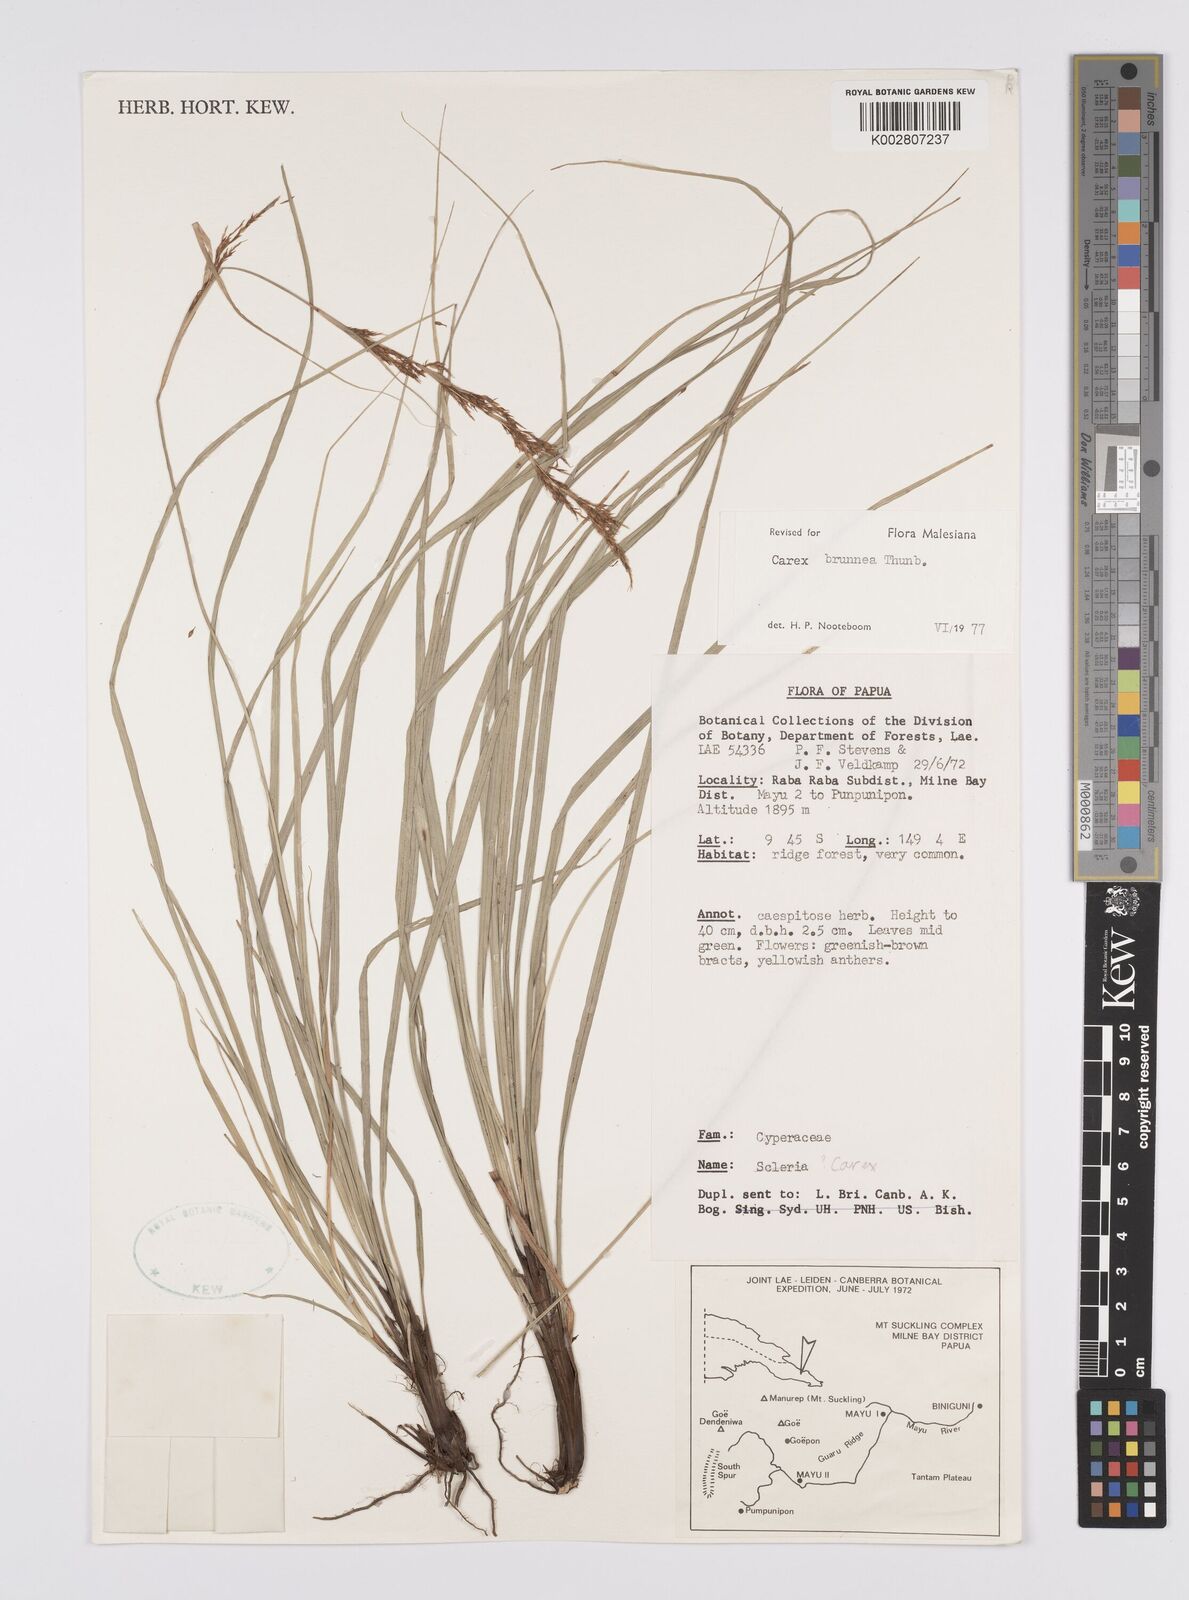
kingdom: Plantae
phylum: Tracheophyta
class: Liliopsida
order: Poales
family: Cyperaceae
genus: Carex
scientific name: Carex brunnea
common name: Greater brown sedge
